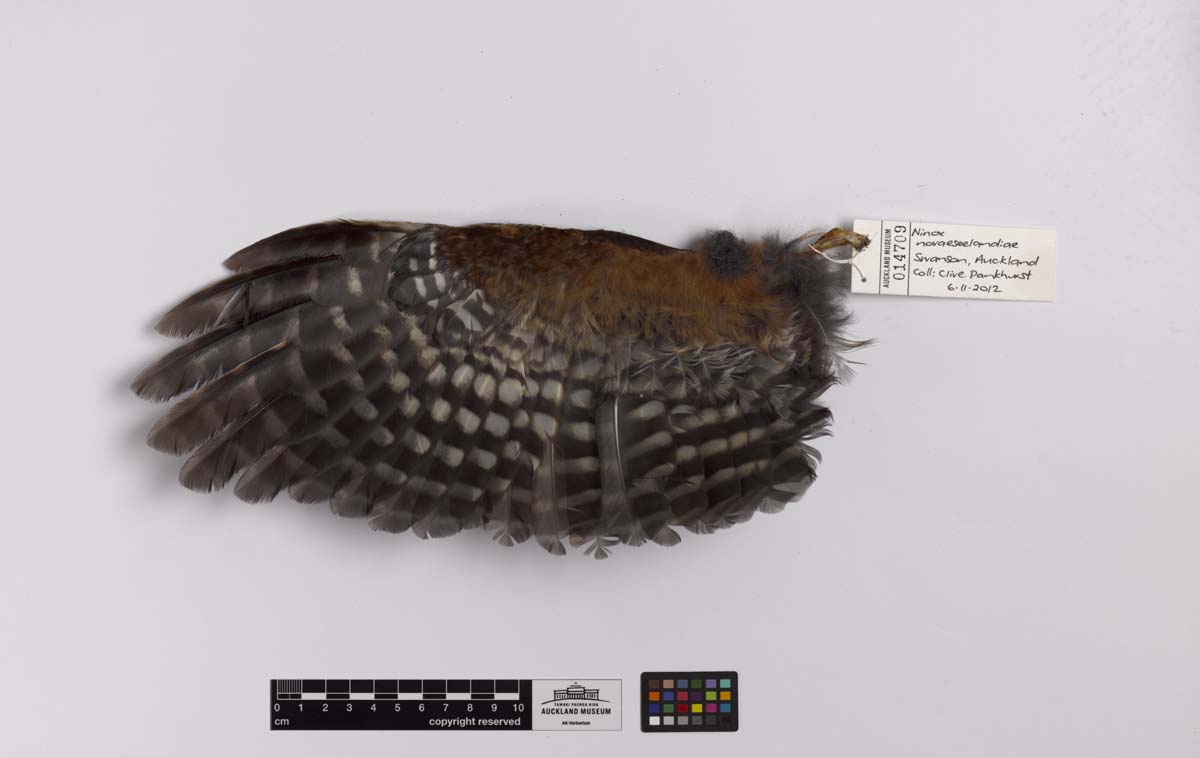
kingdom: Animalia
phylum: Chordata
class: Aves
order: Strigiformes
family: Strigidae
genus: Ninox
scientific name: Ninox novaeseelandiae
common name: Morepork
